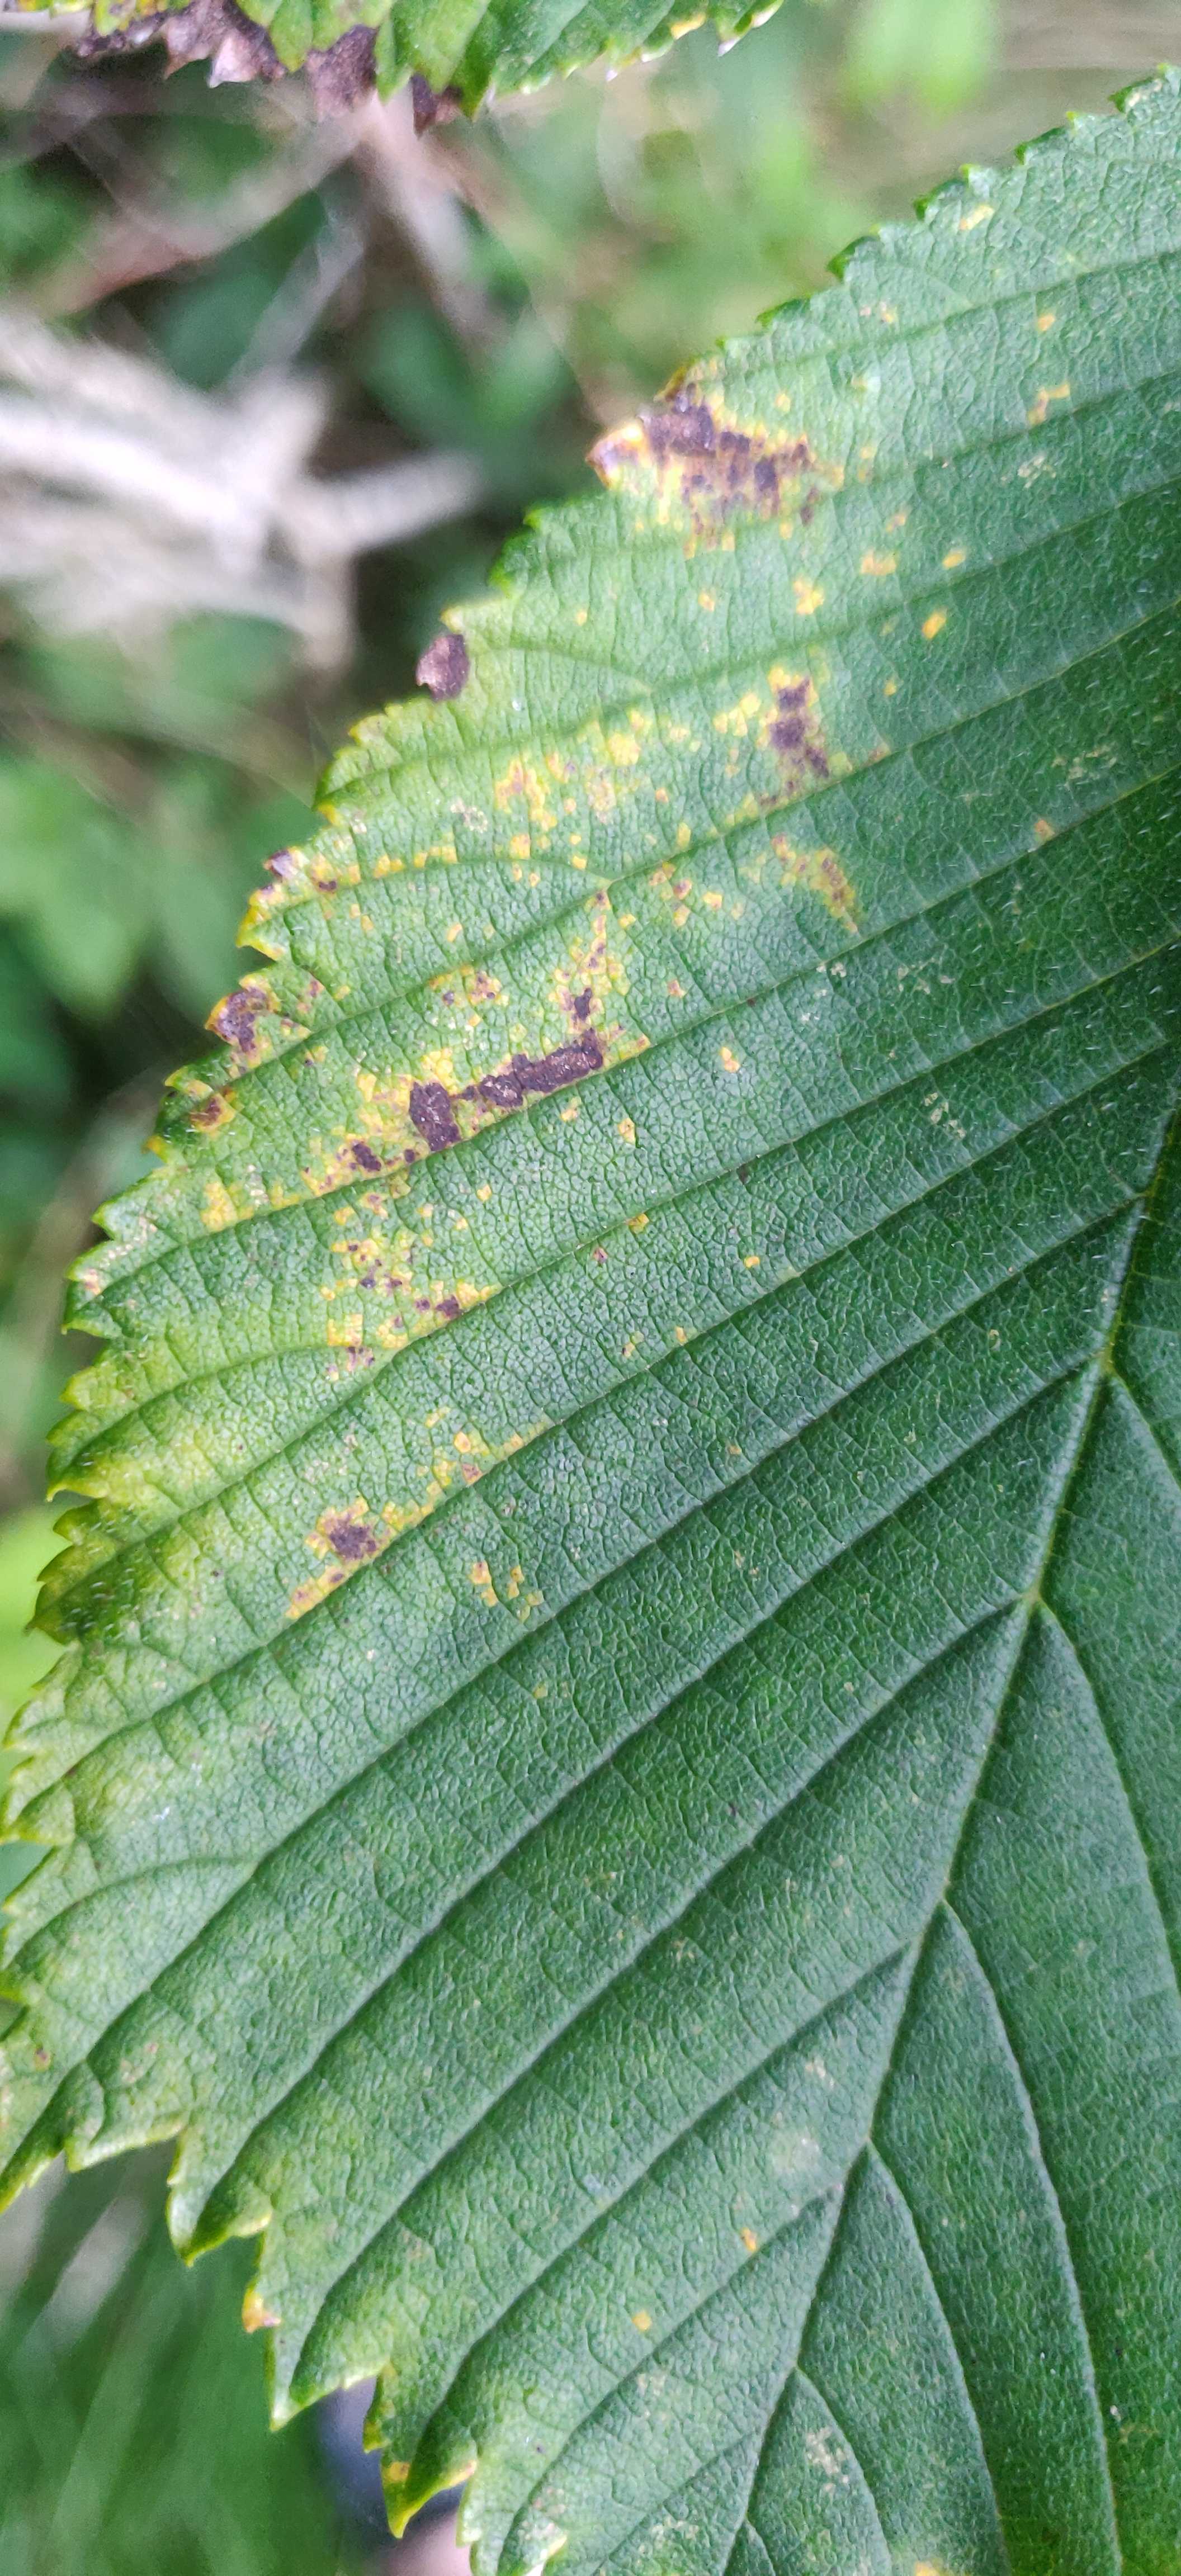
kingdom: Fungi
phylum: Ascomycota
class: Dothideomycetes
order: Mycosphaerellales
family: Mycosphaerellaceae
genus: Mycosphaerella
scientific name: Mycosphaerella ulmi
